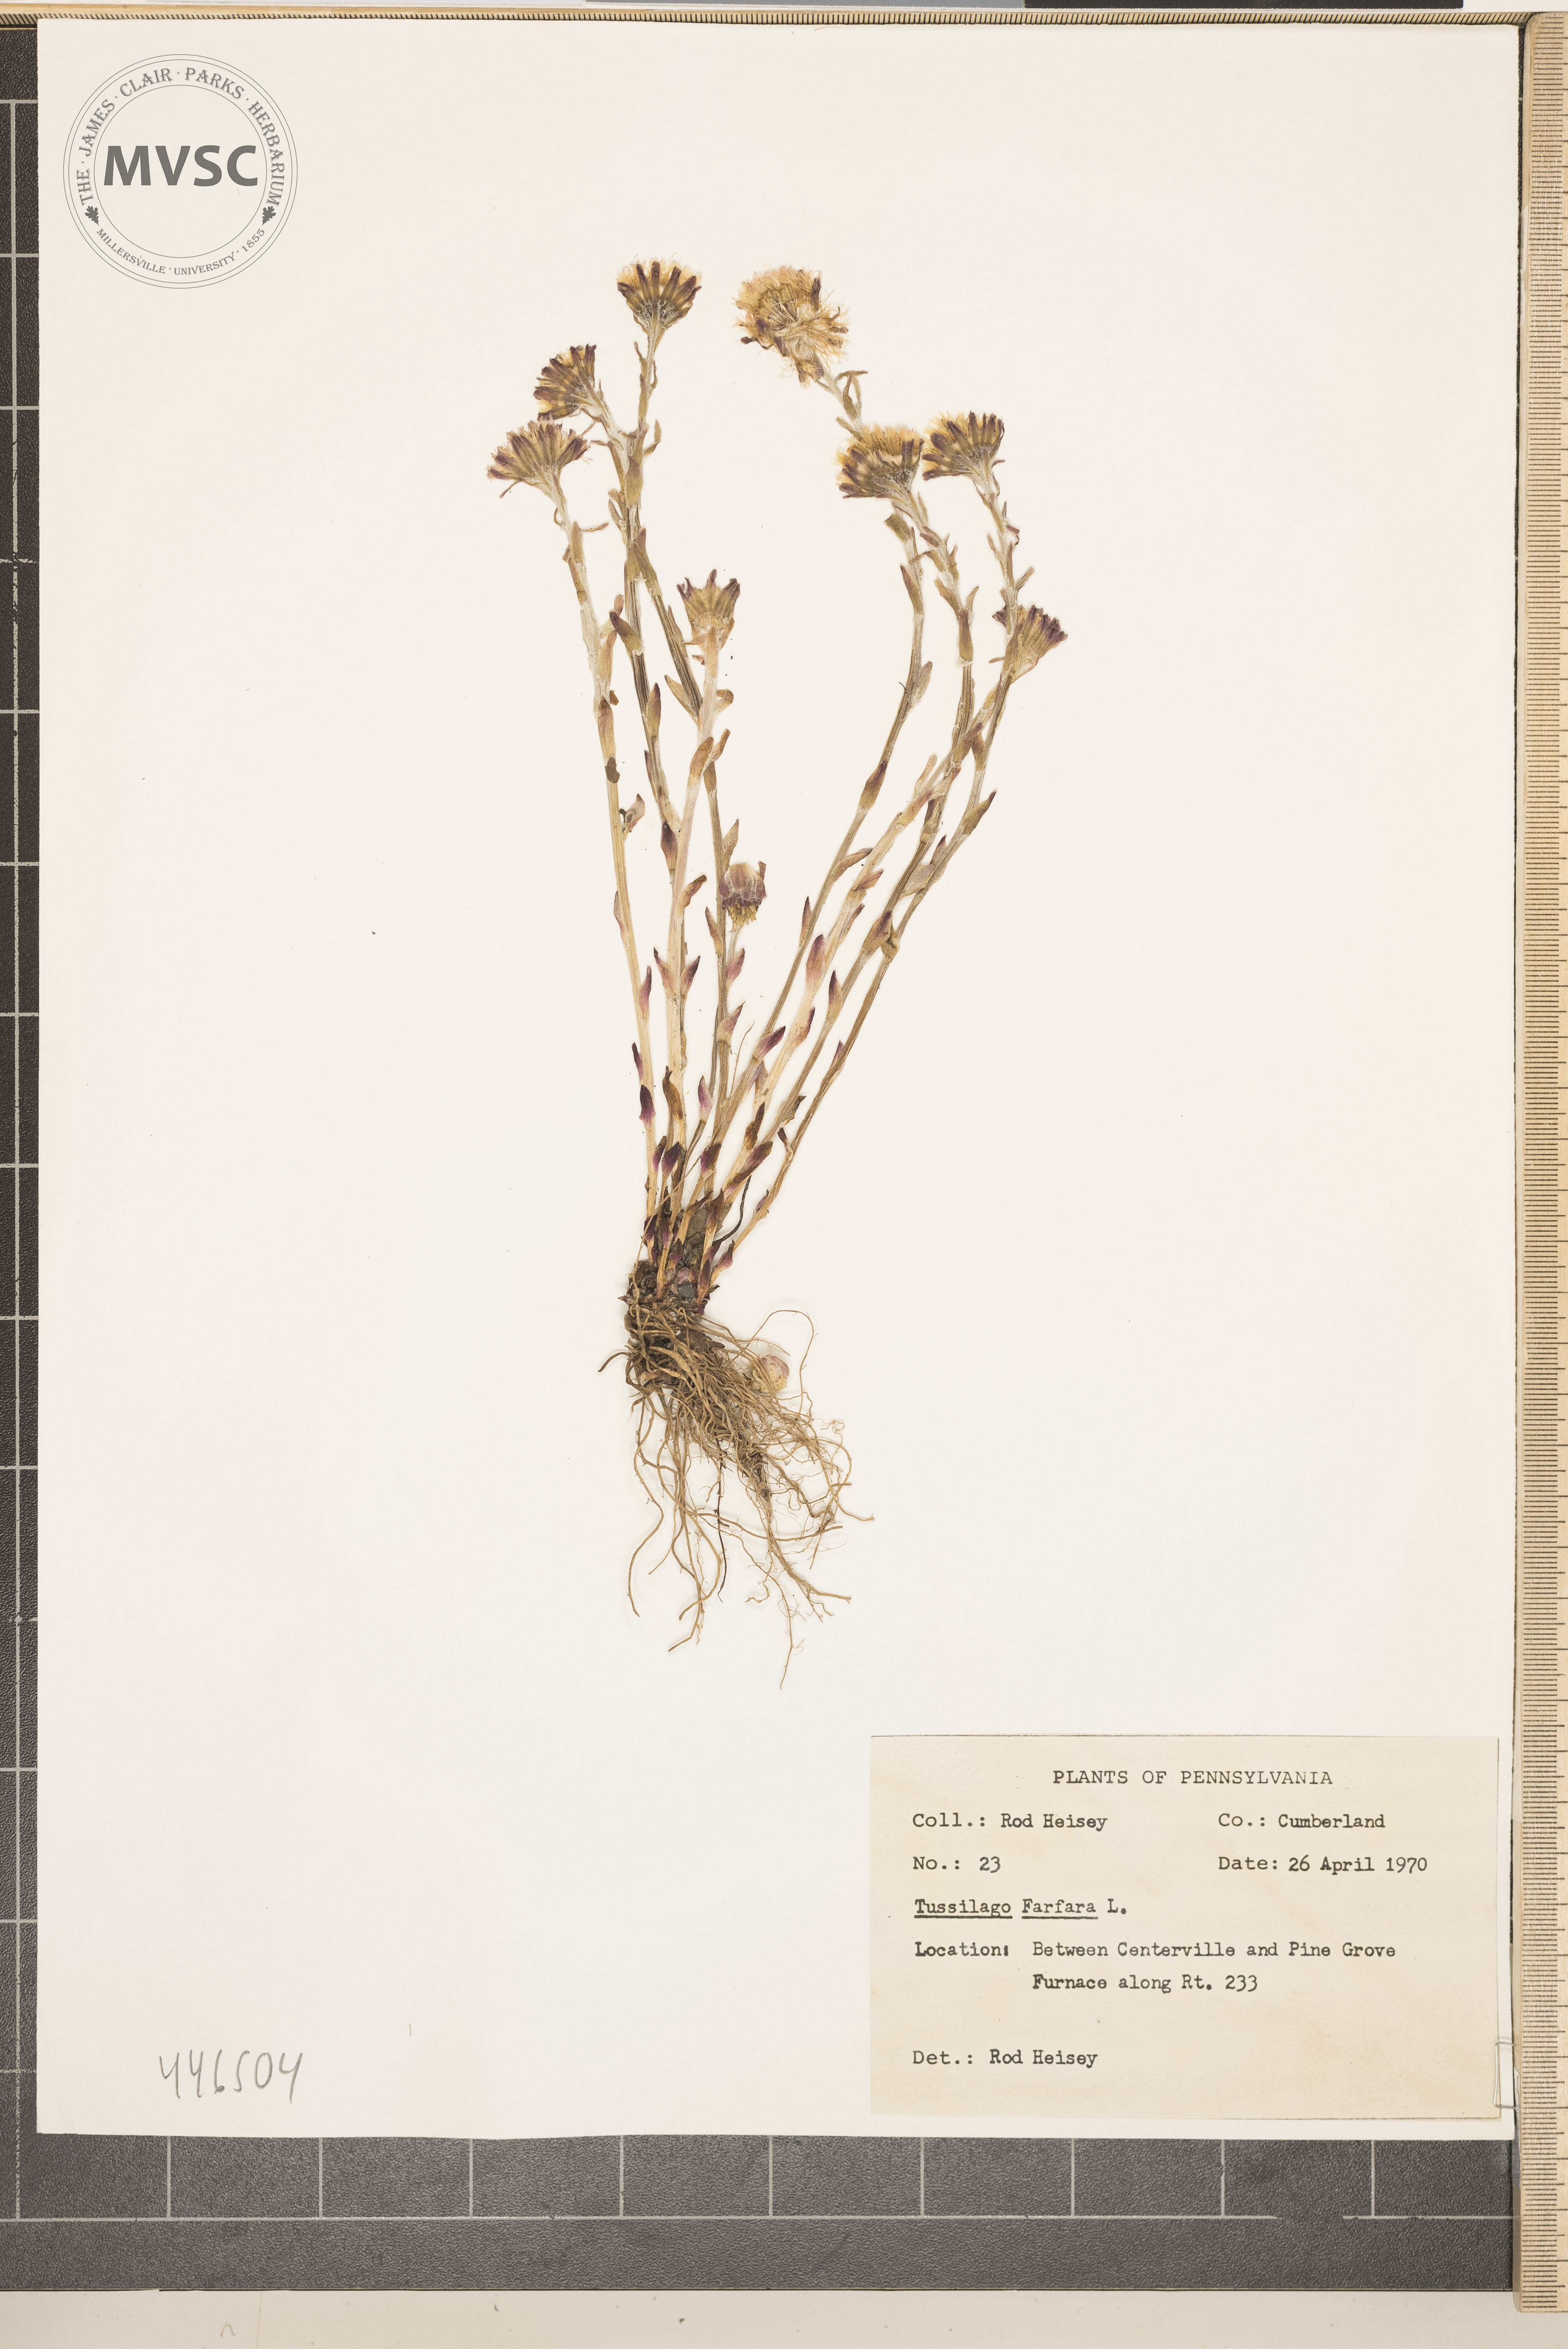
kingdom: Plantae
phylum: Tracheophyta
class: Magnoliopsida
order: Asterales
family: Asteraceae
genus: Tussilago
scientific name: Tussilago farfara
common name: Coltsfoot
